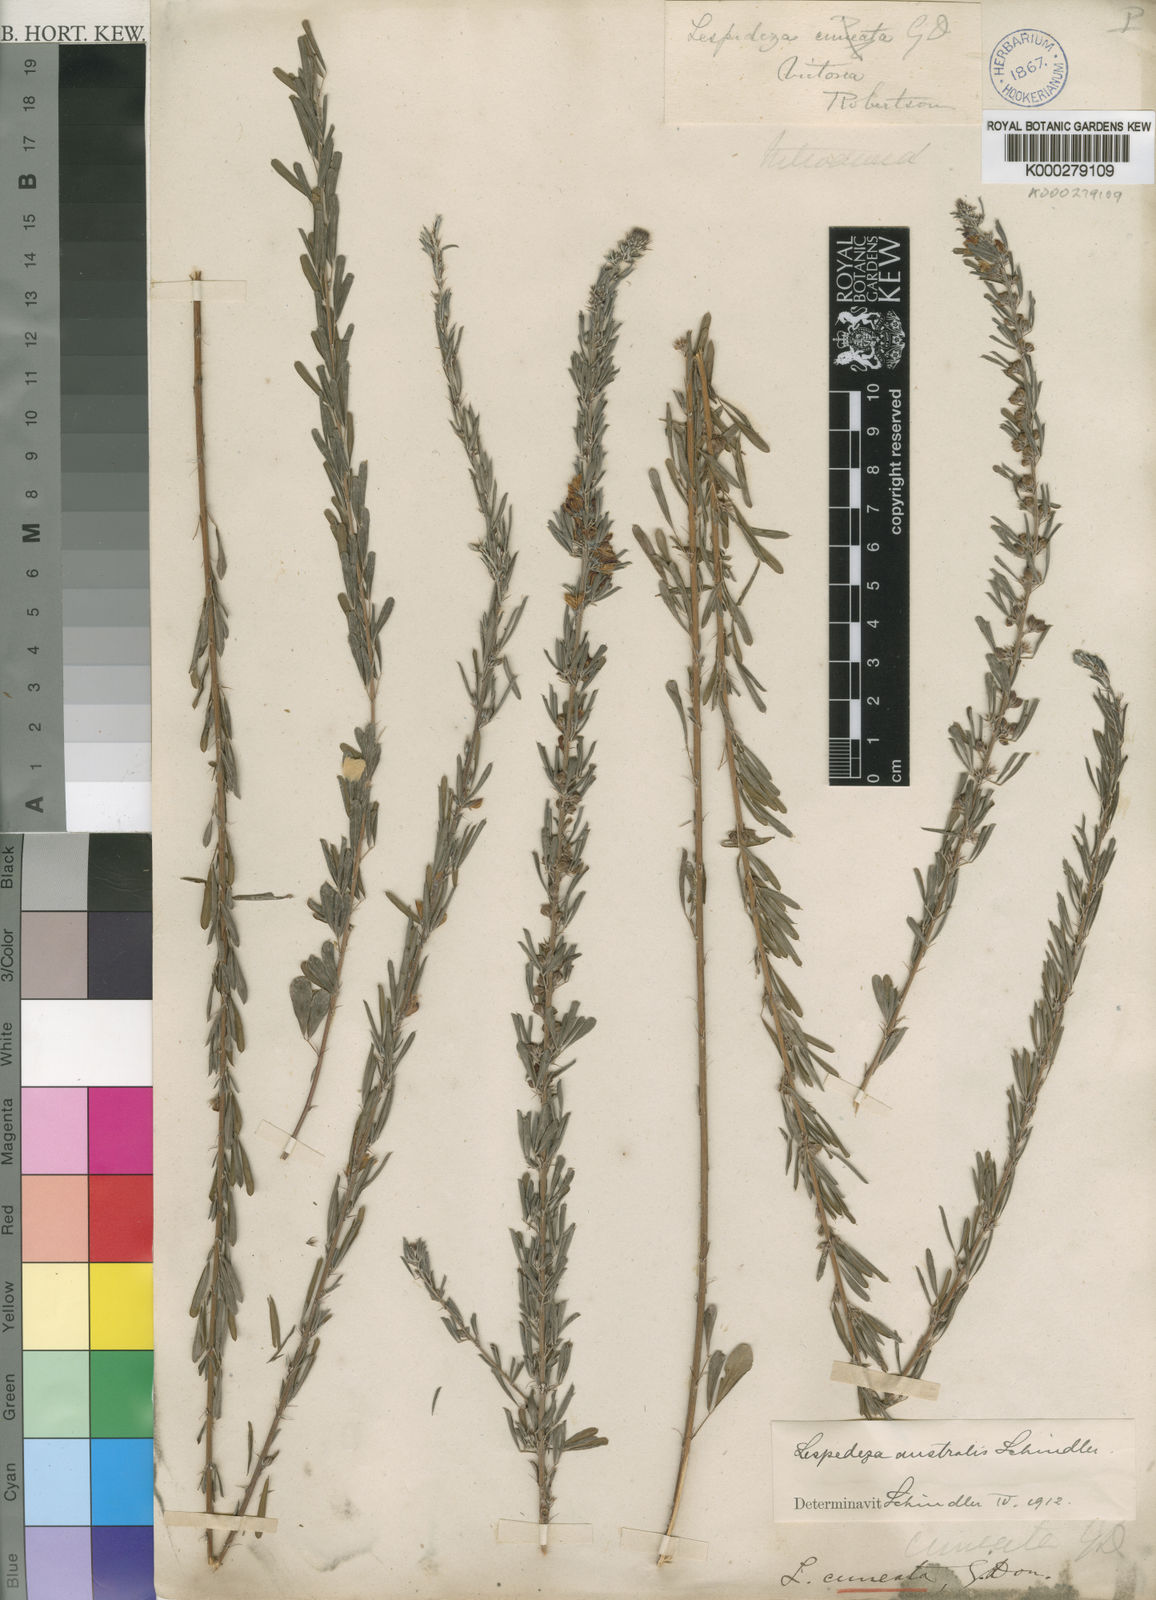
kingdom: Plantae
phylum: Tracheophyta
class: Magnoliopsida
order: Fabales
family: Fabaceae
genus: Lespedeza
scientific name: Lespedeza cuneata
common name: Chinese bush-clover
